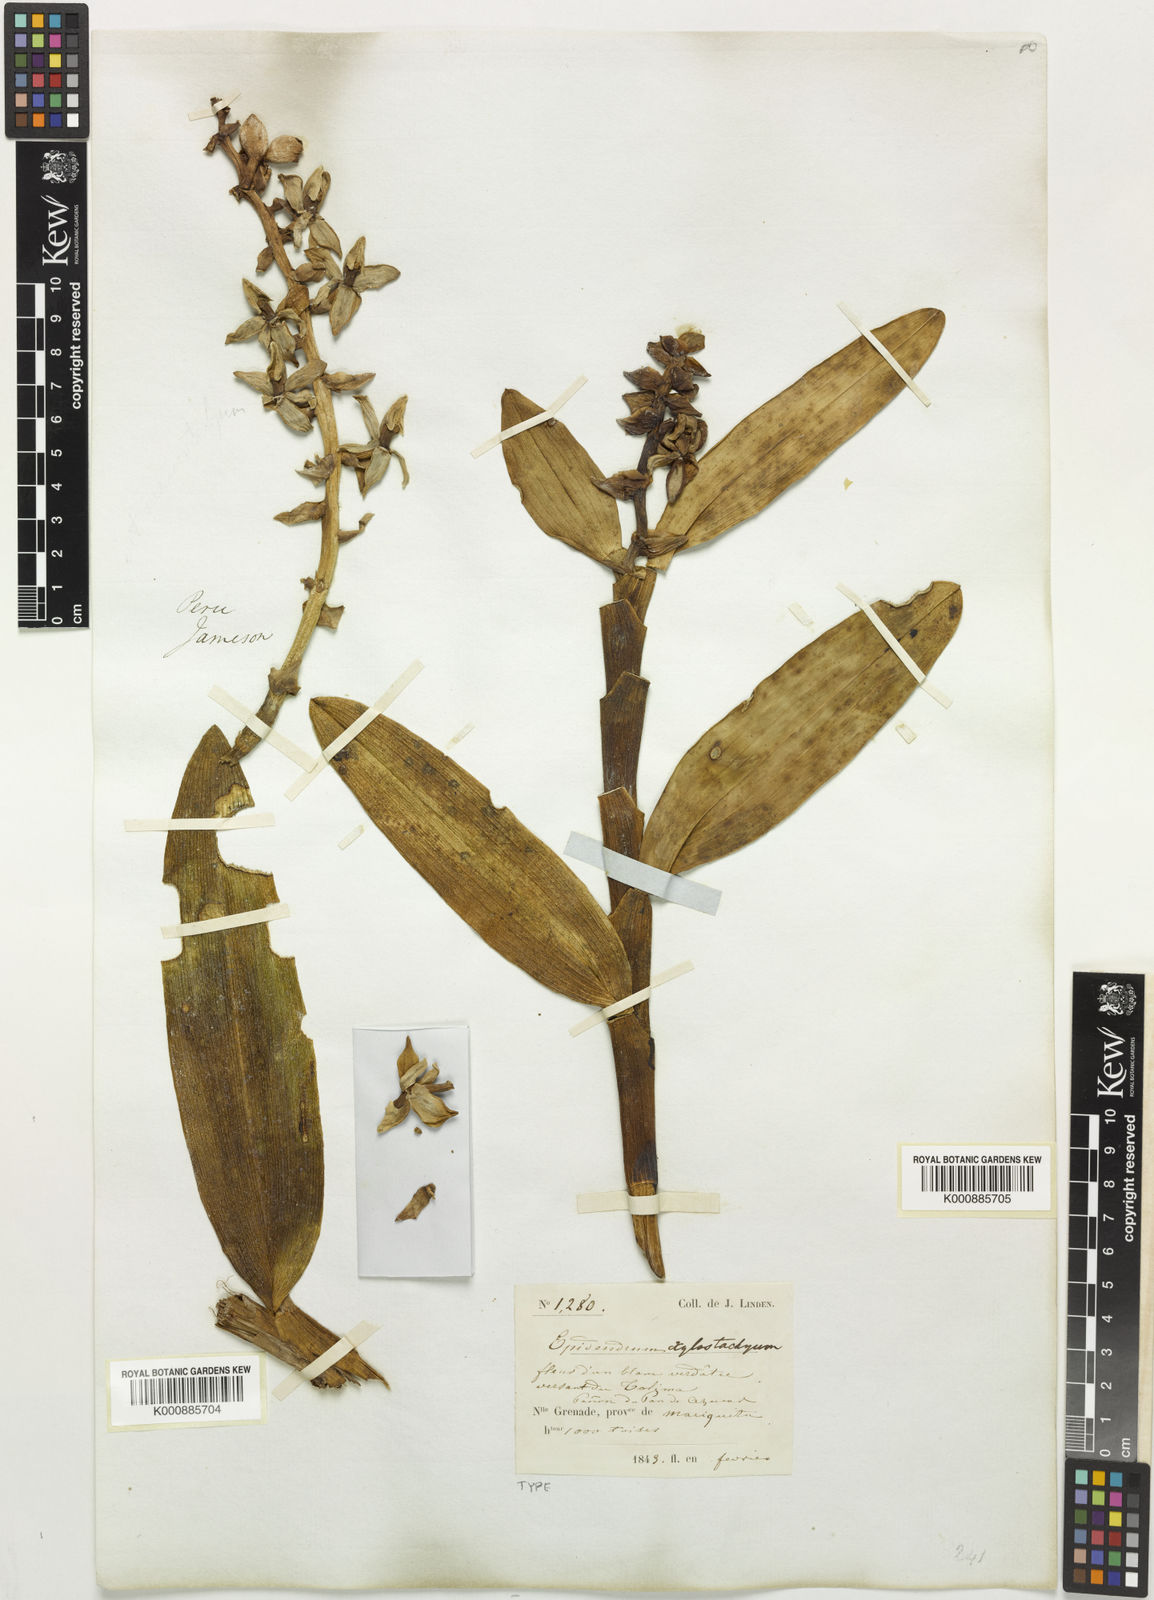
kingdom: Plantae
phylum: Tracheophyta
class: Liliopsida
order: Asparagales
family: Orchidaceae
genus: Epidendrum
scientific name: Epidendrum xylostachyum
